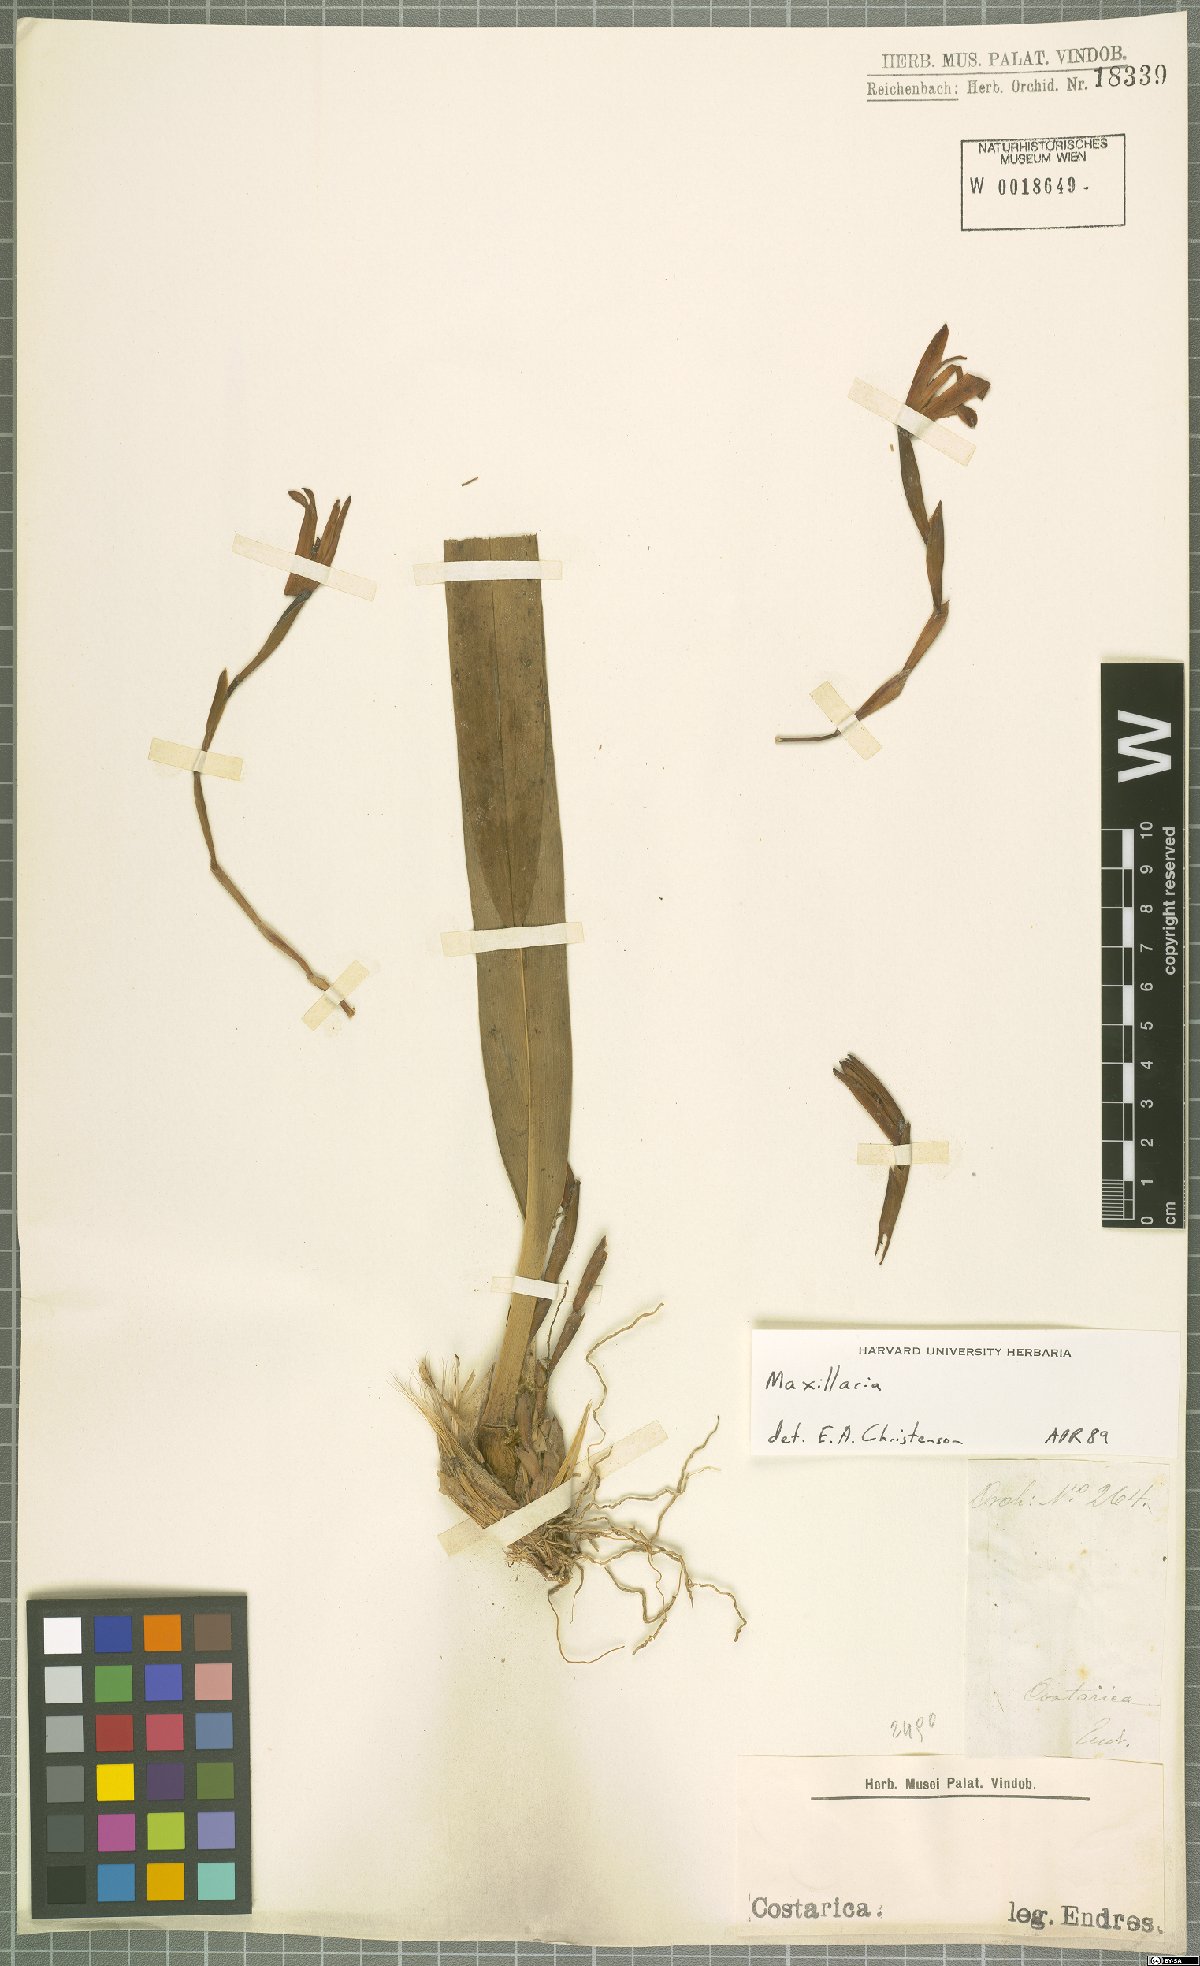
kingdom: Plantae
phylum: Tracheophyta
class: Liliopsida
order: Asparagales
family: Orchidaceae
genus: Maxillaria
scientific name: Maxillaria
